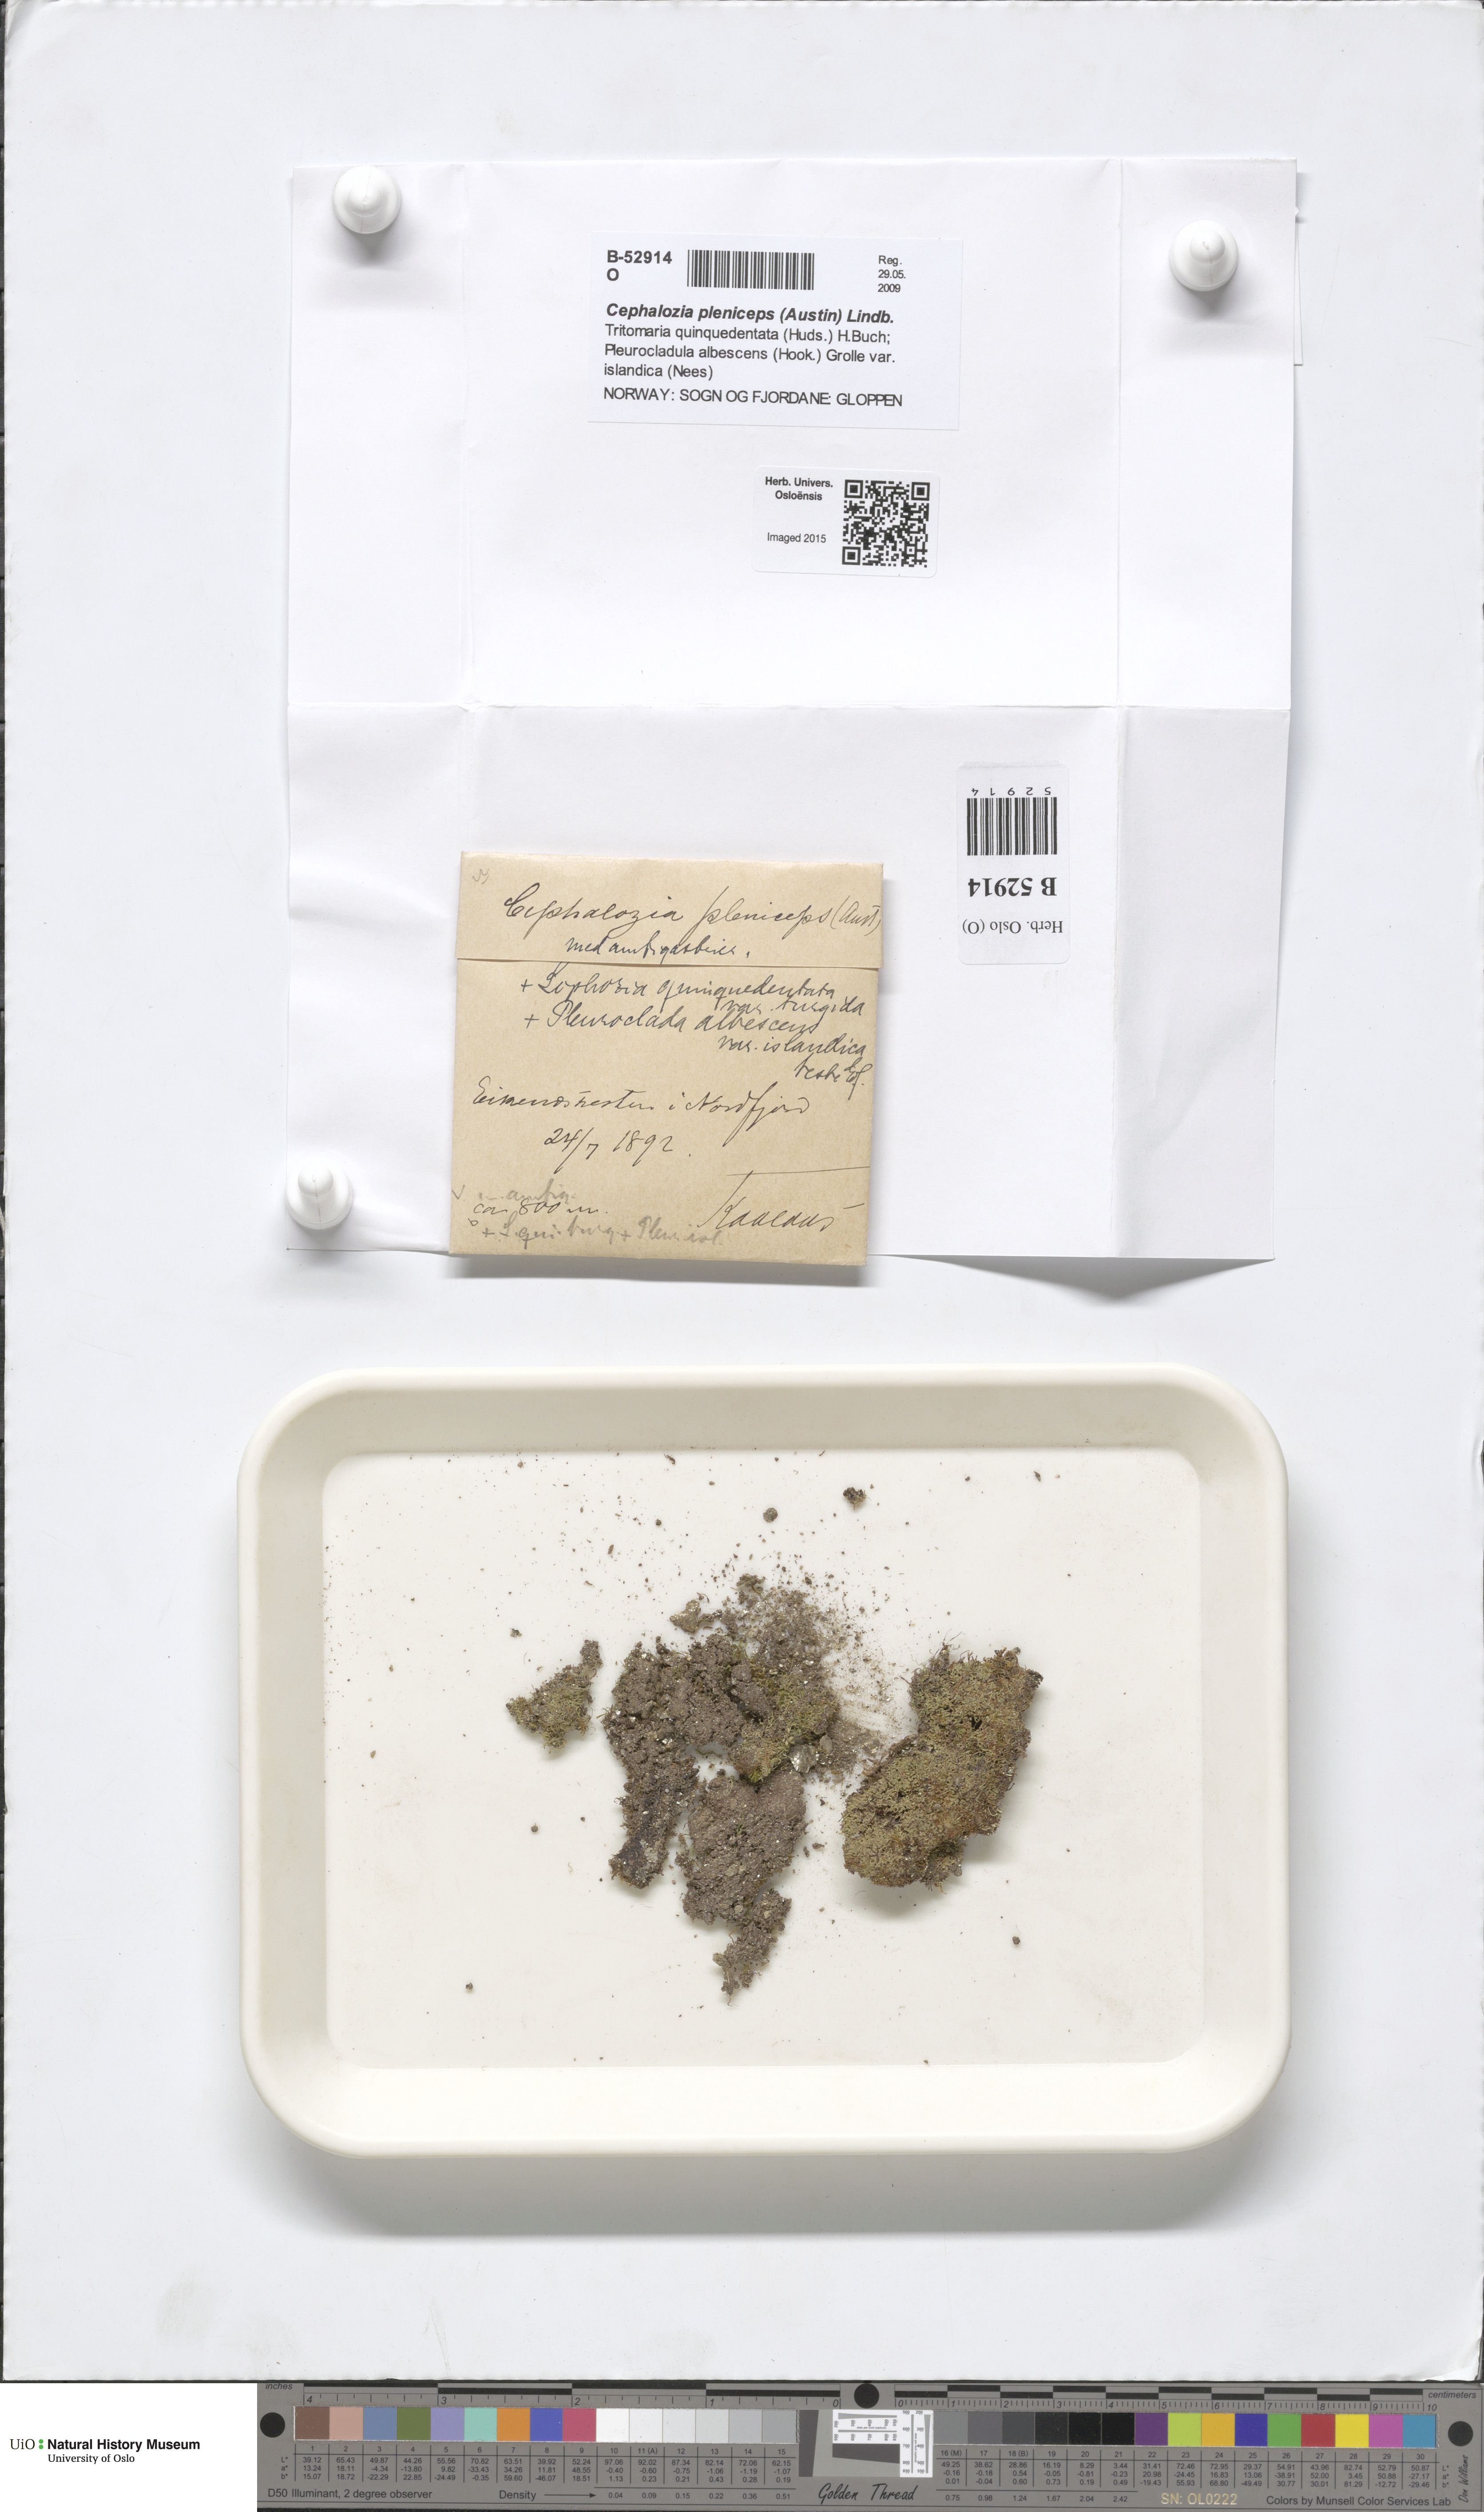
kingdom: Plantae
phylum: Marchantiophyta
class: Jungermanniopsida
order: Jungermanniales
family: Cephaloziaceae
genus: Fuscocephaloziopsis
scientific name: Fuscocephaloziopsis pleniceps
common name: Blunt pincerwort
